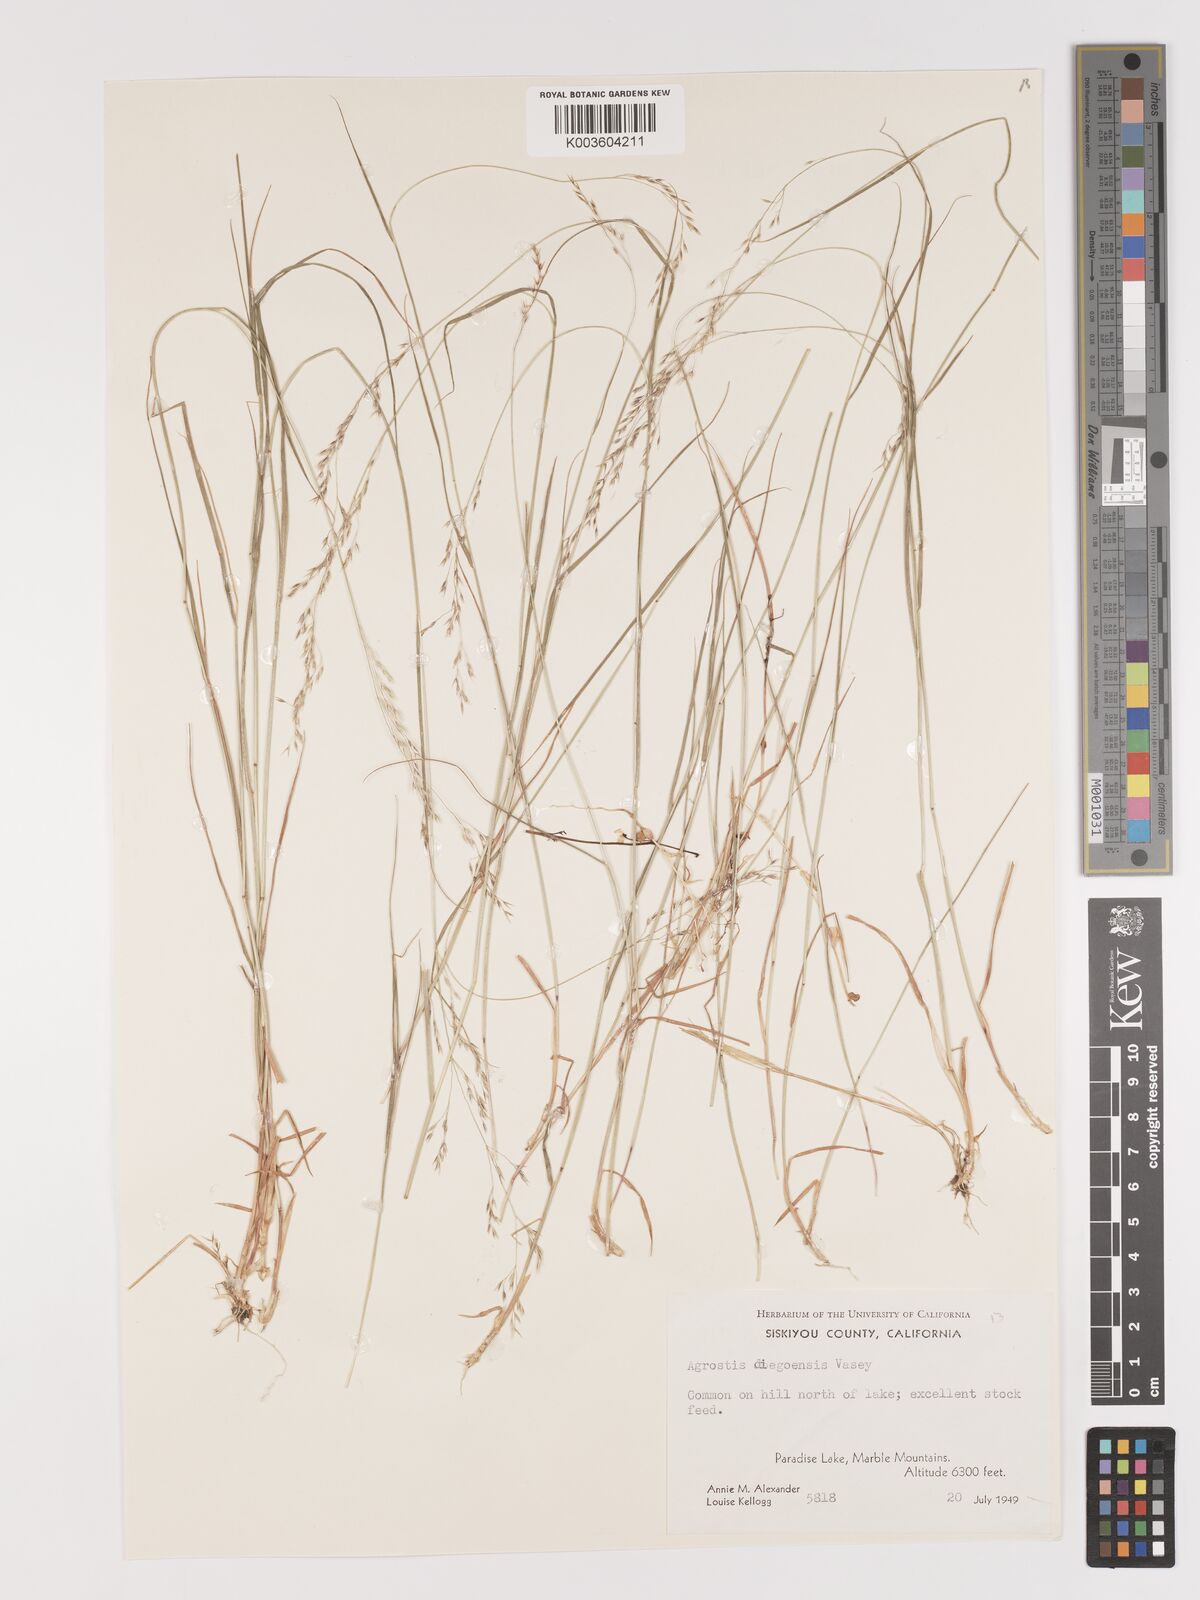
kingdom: Plantae
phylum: Tracheophyta
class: Liliopsida
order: Poales
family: Poaceae
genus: Agrostis
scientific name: Agrostis pallens
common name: Dune bent
